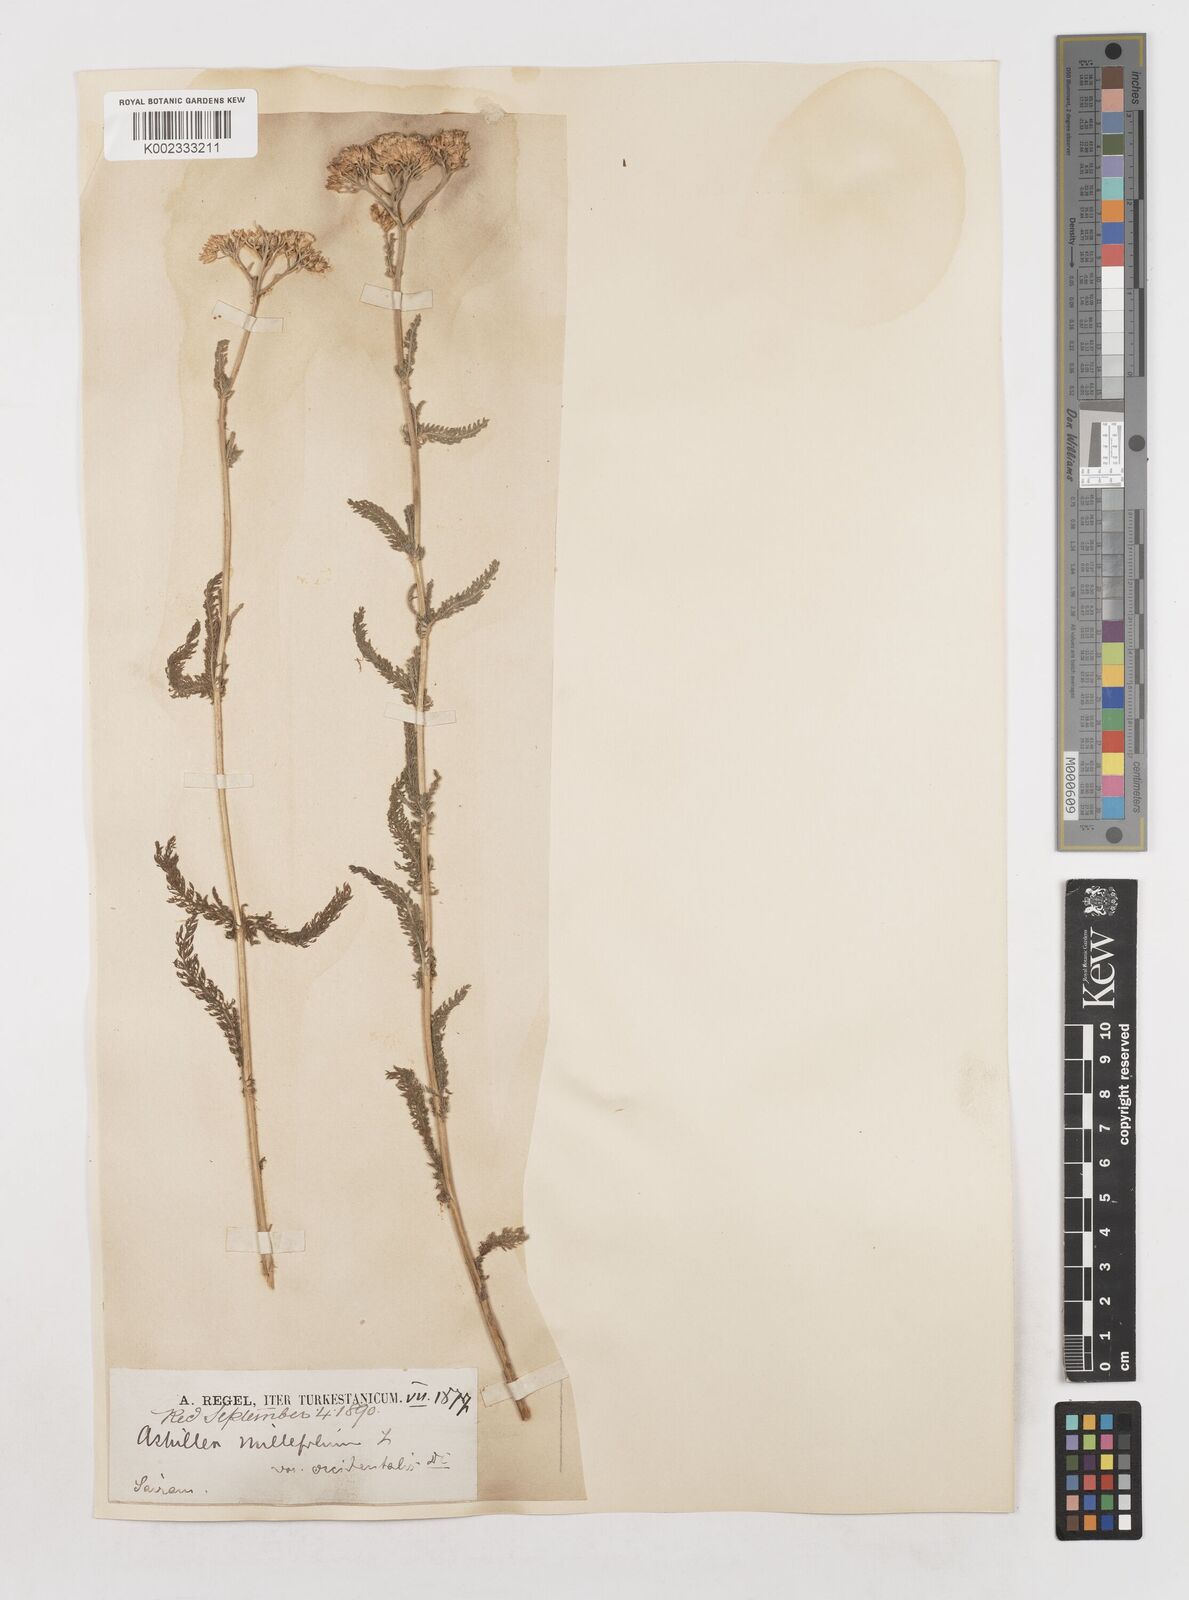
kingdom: Plantae
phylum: Tracheophyta
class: Magnoliopsida
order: Asterales
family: Asteraceae
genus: Achillea
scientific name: Achillea millefolium
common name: Yarrow
